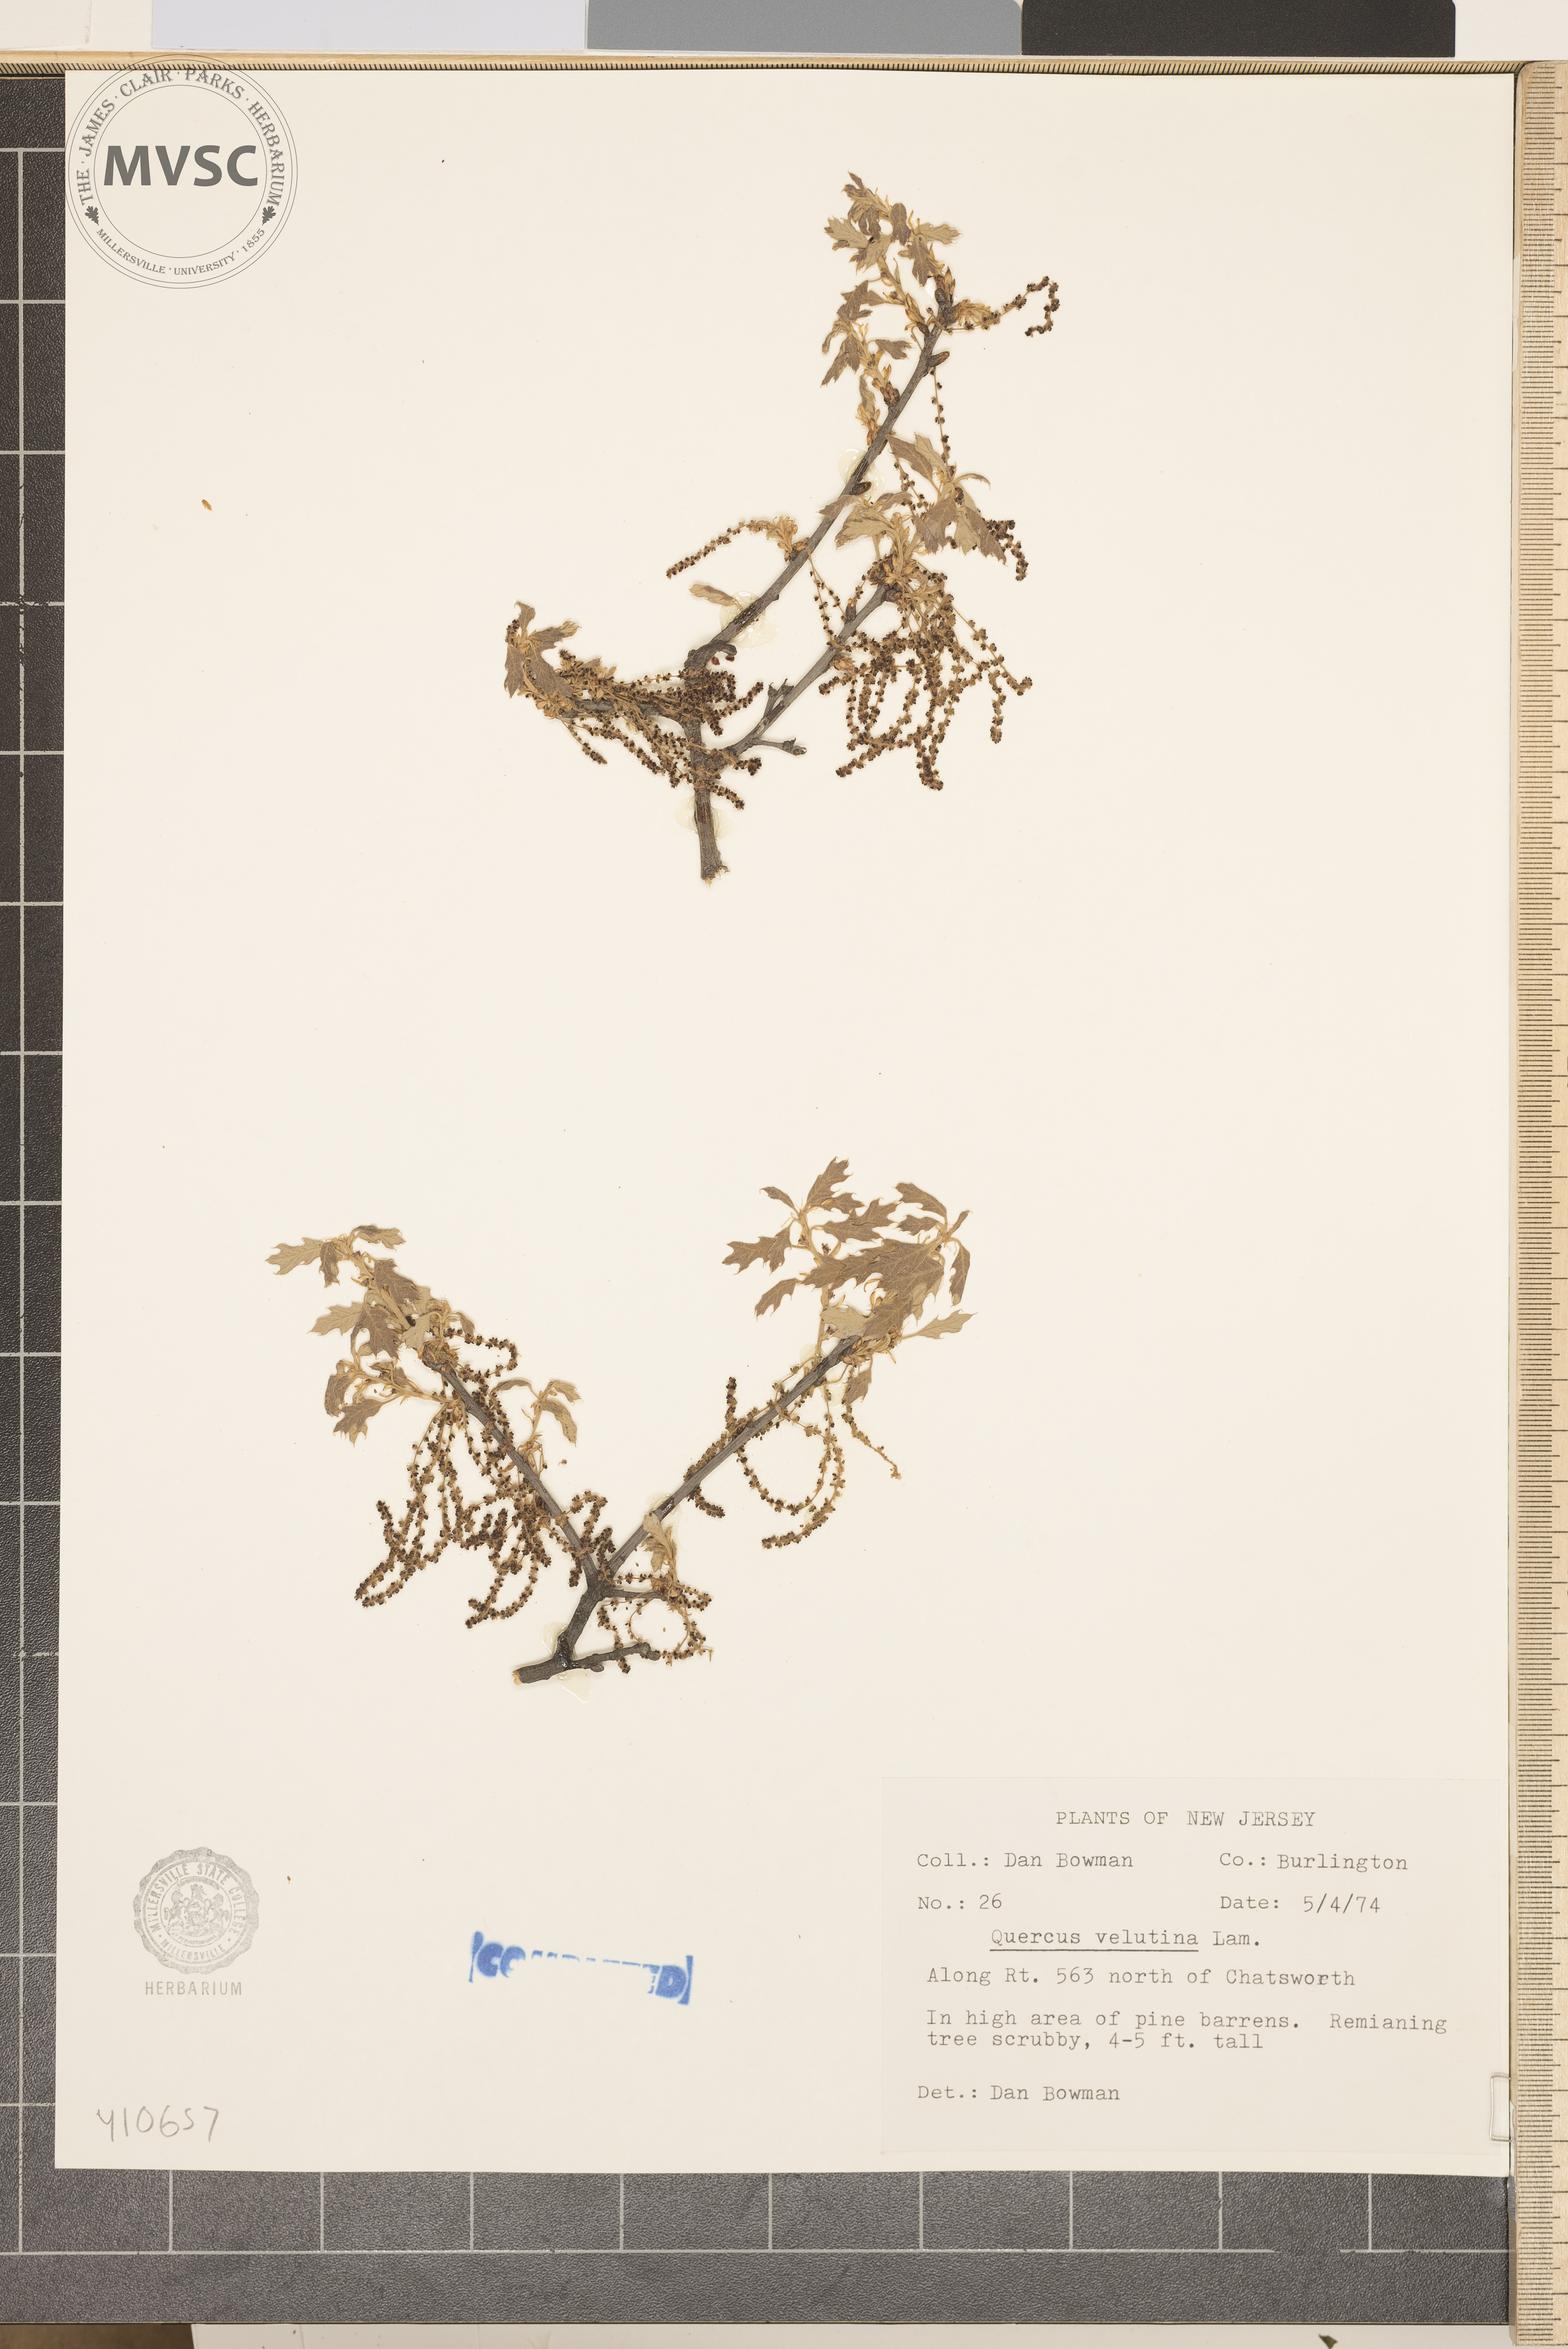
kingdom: Plantae
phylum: Tracheophyta
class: Magnoliopsida
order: Fagales
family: Fagaceae
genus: Quercus
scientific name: Quercus velutina
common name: Black oak
